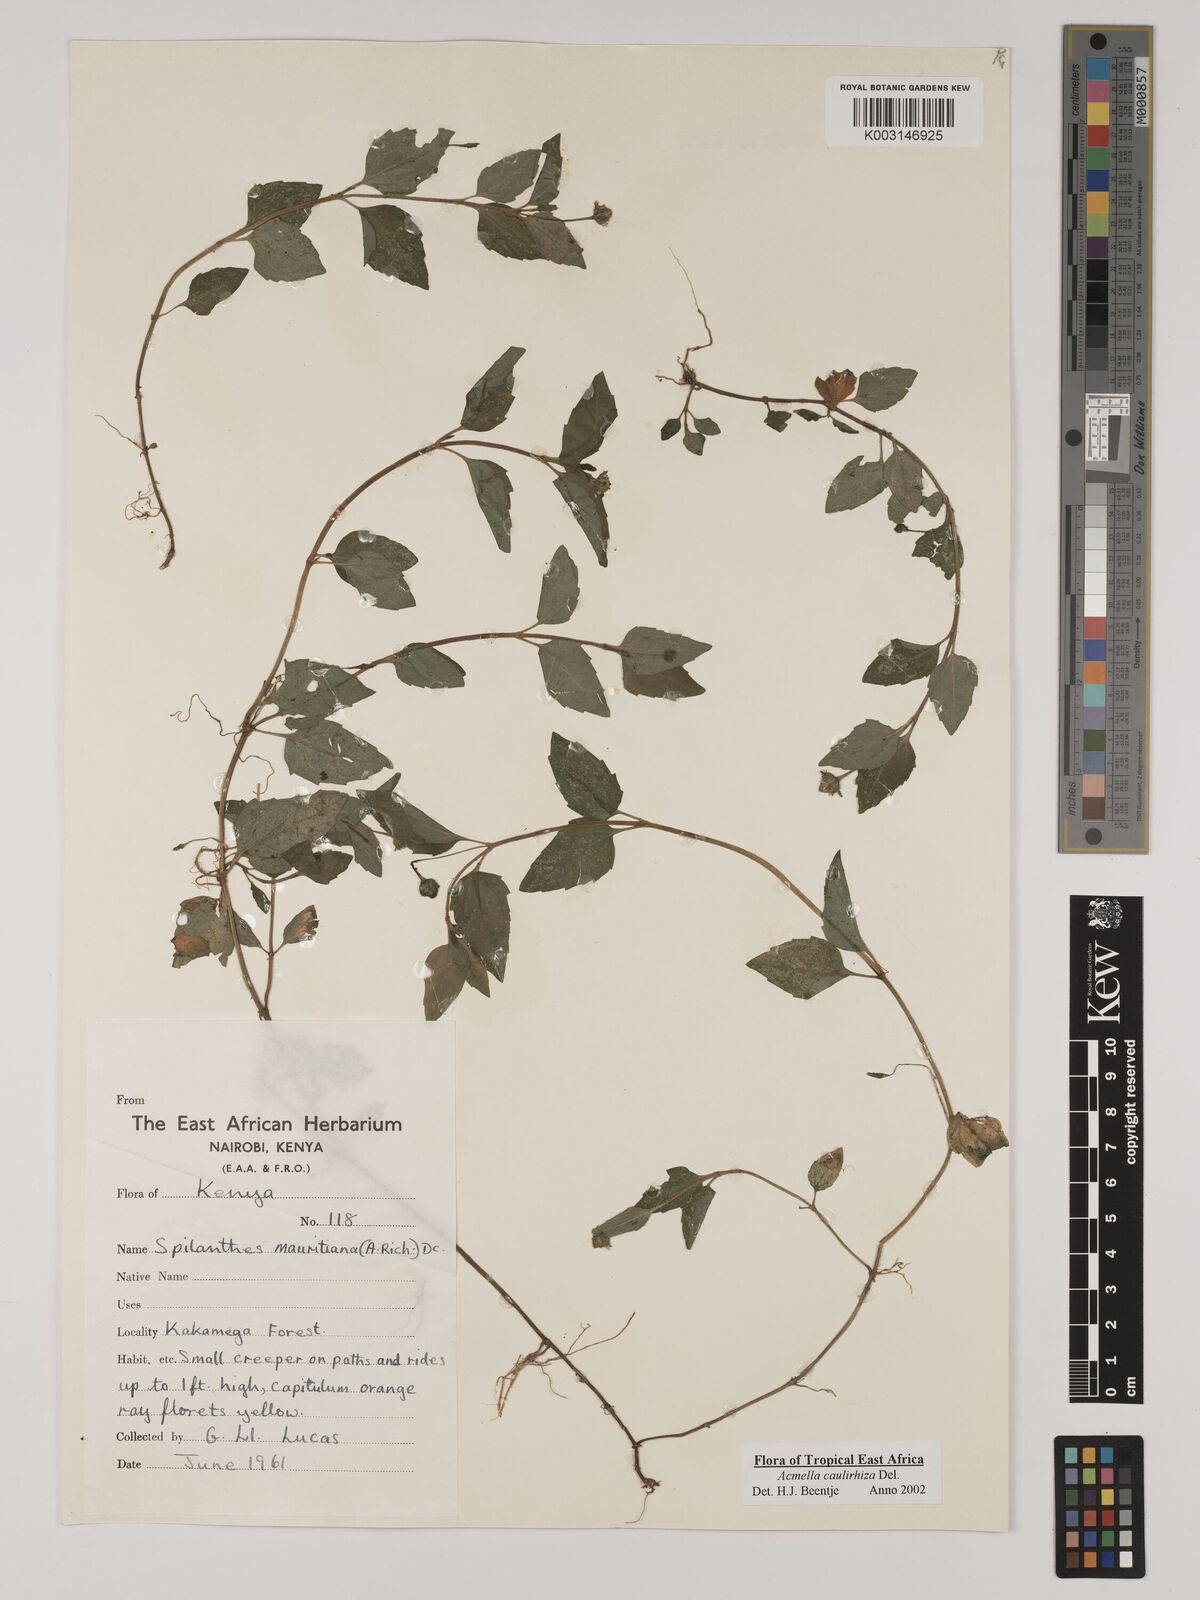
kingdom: Plantae
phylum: Tracheophyta
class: Magnoliopsida
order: Asterales
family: Asteraceae
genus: Acmella
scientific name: Acmella caulirhiza
